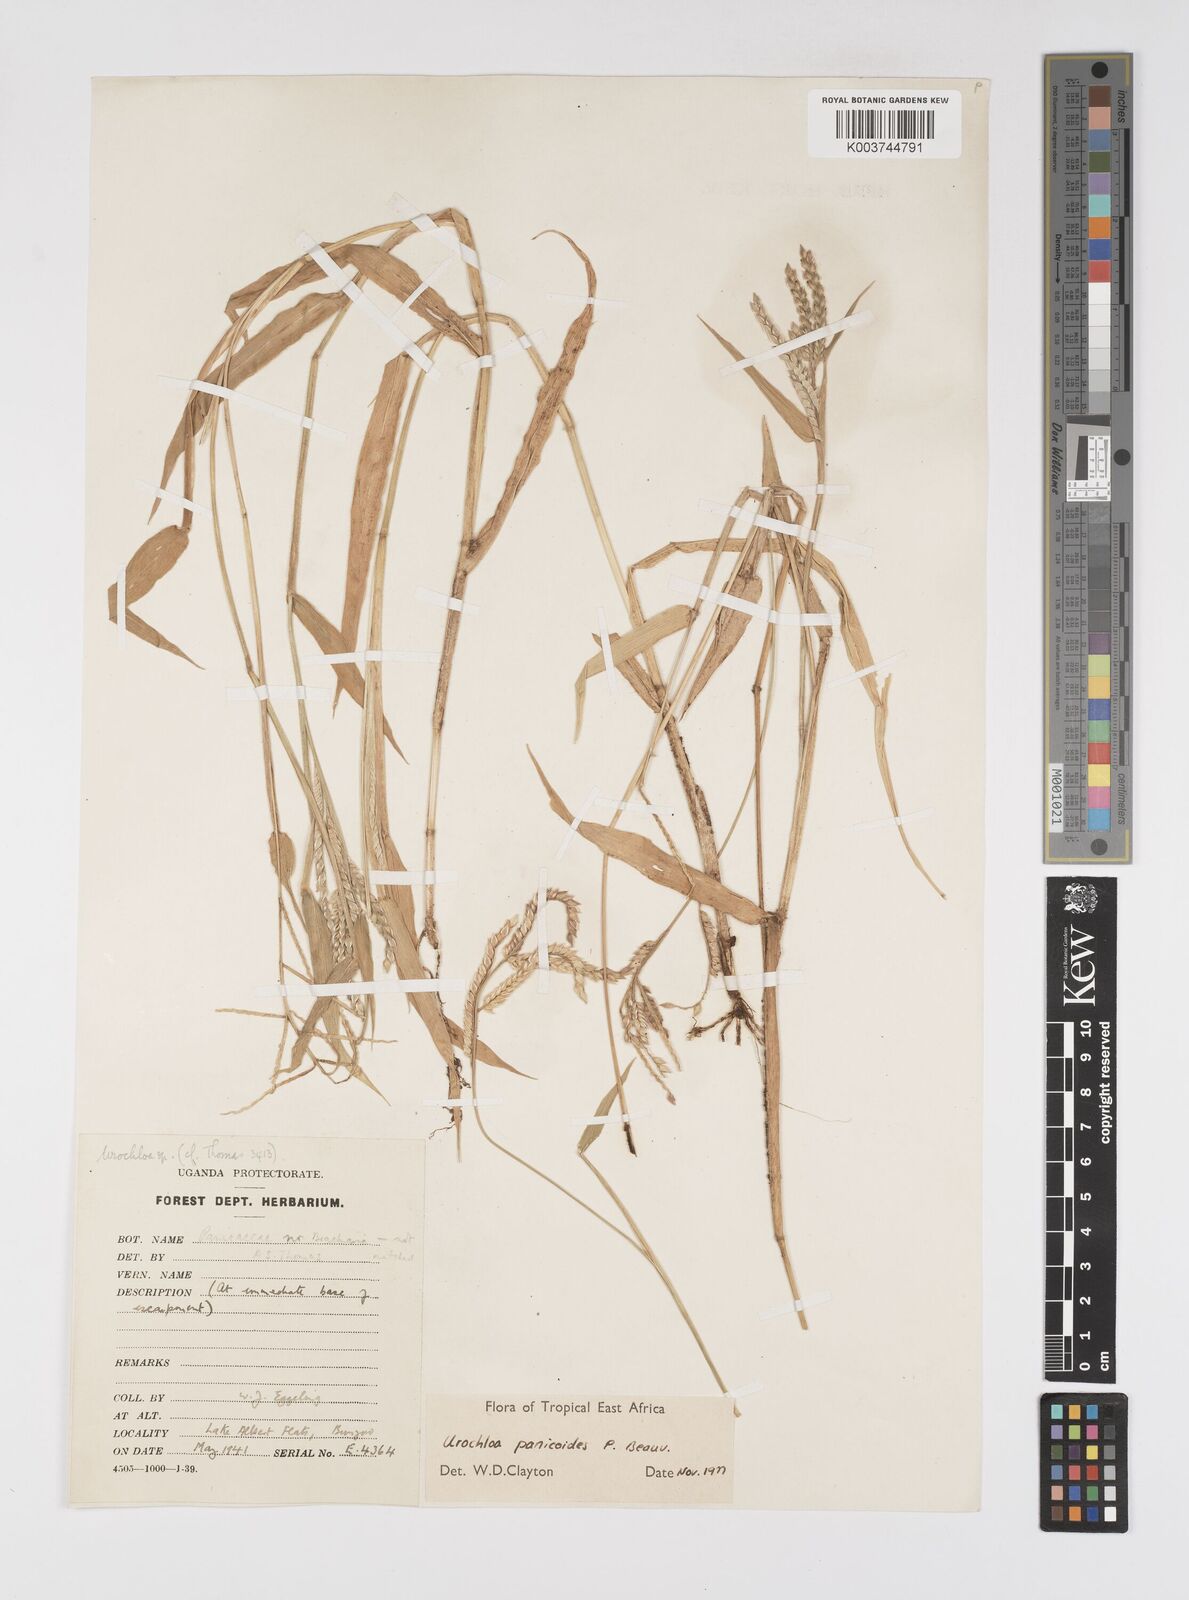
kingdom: Plantae
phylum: Tracheophyta
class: Liliopsida
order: Poales
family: Poaceae
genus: Urochloa
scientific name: Urochloa panicoides
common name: Sharp-flowered signal-grass
